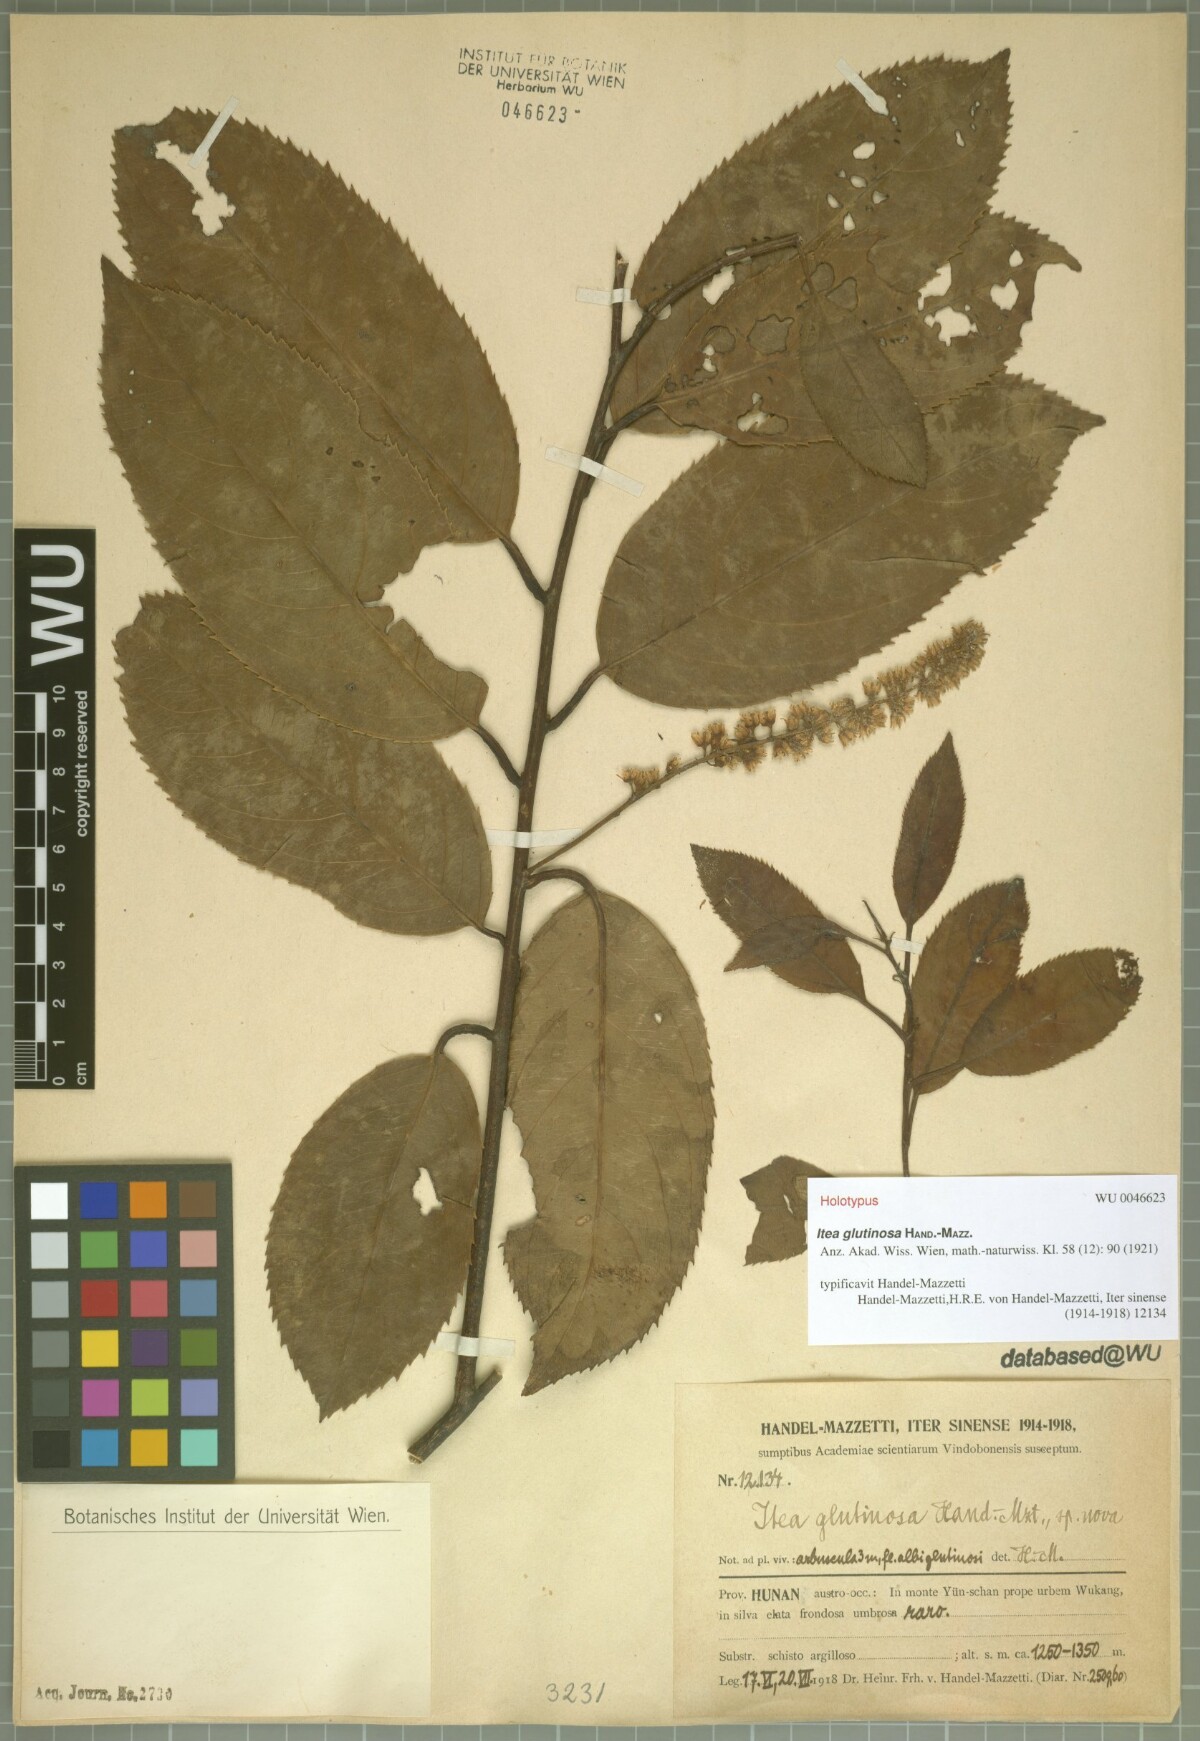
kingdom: Plantae
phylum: Tracheophyta
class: Magnoliopsida
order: Saxifragales
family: Iteaceae
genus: Itea
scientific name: Itea glutinosa
